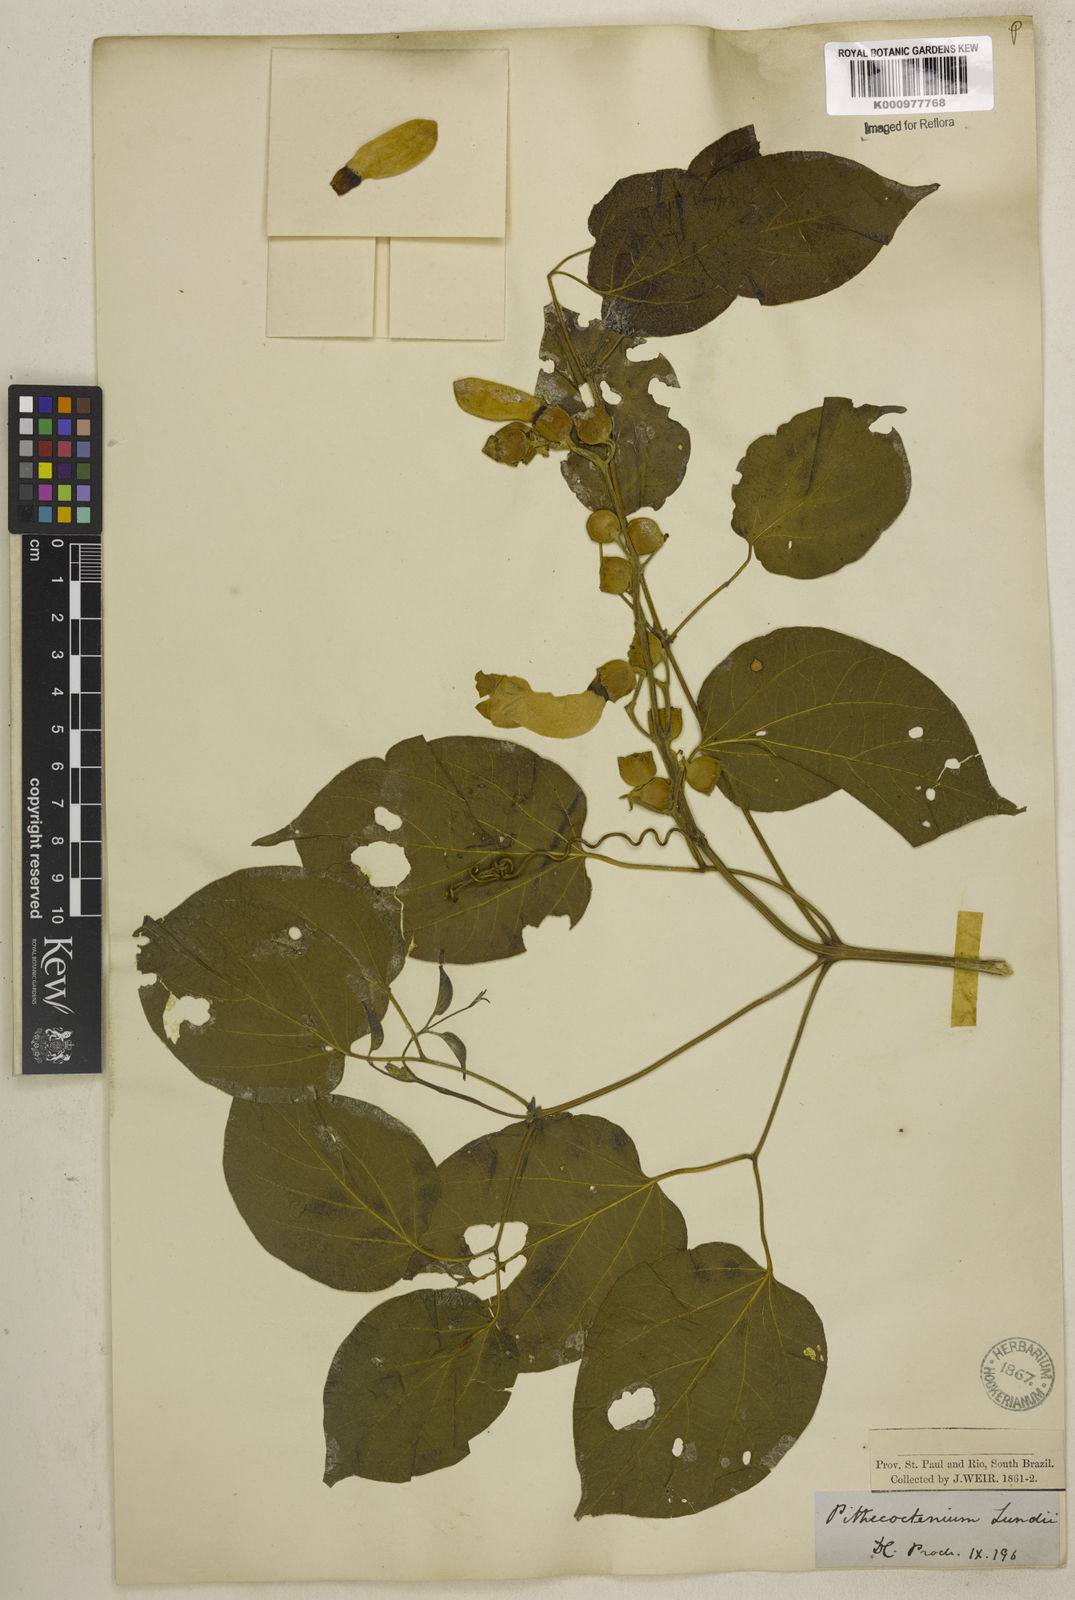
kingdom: Plantae
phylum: Tracheophyta
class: Magnoliopsida
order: Lamiales
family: Bignoniaceae
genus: Amphilophium
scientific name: Amphilophium crucigerum
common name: Monkey comb
